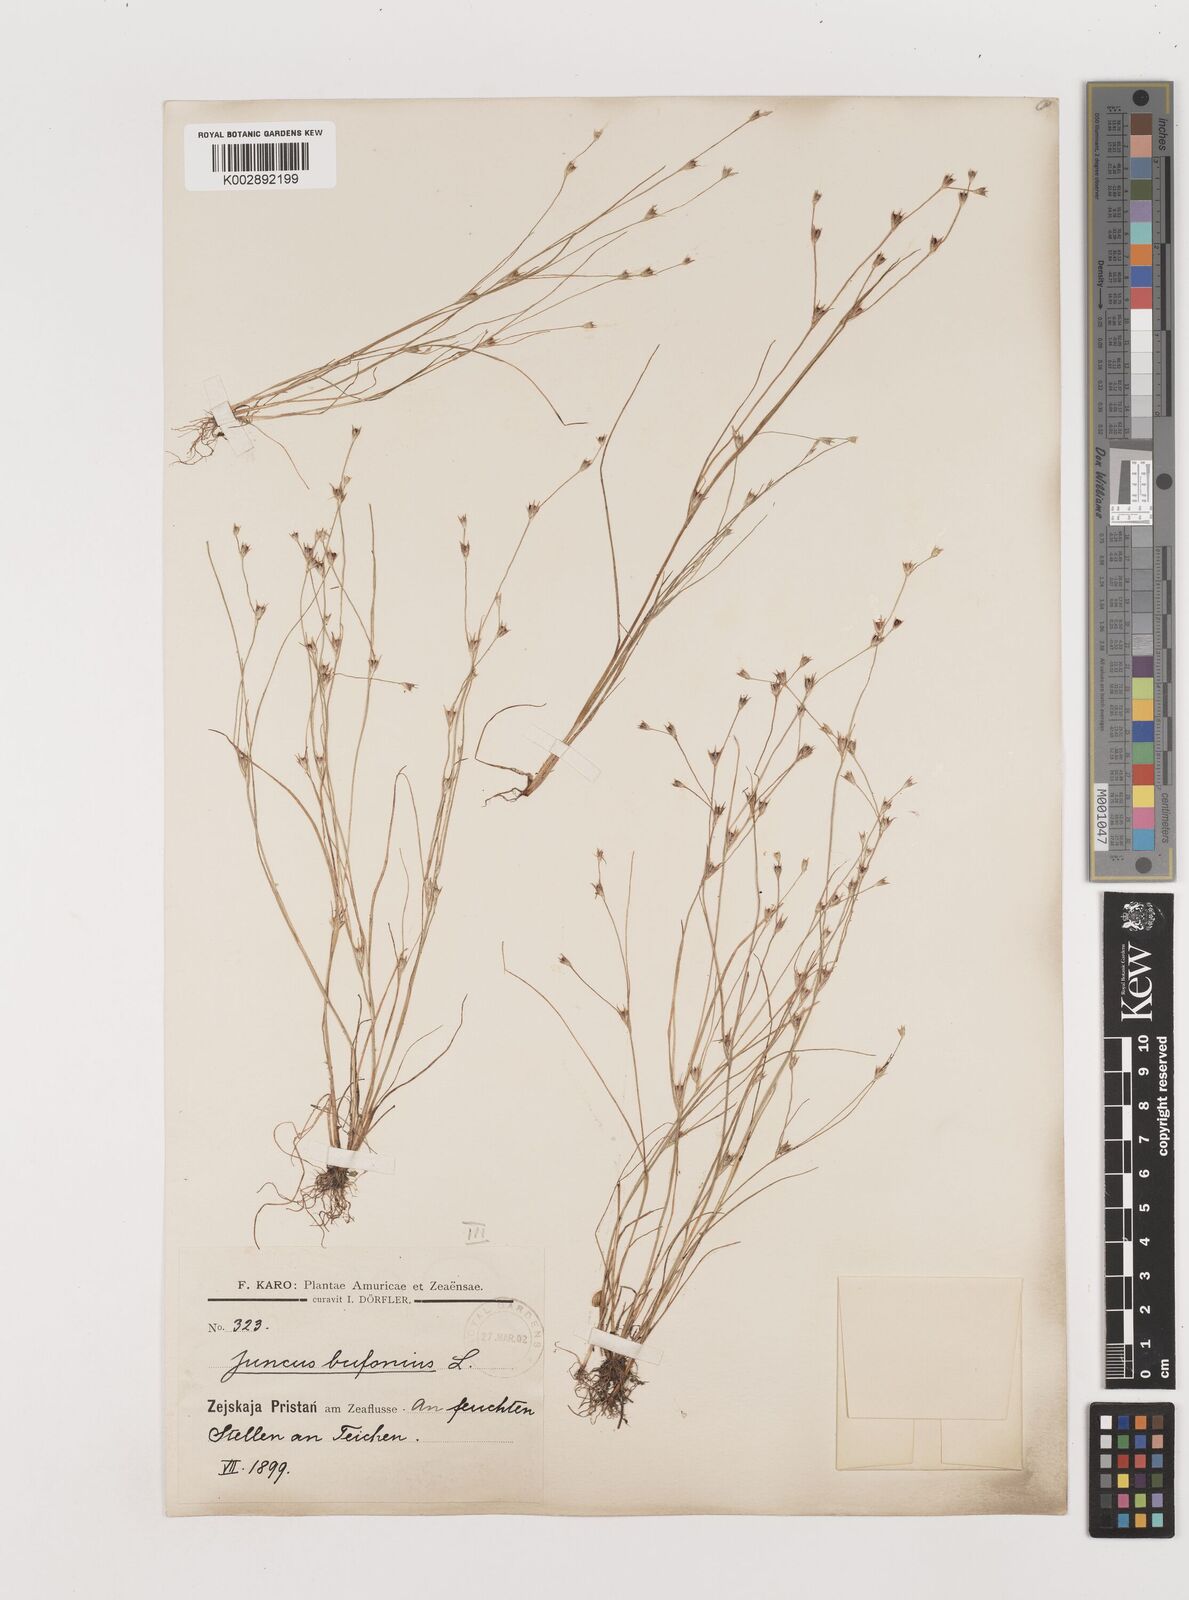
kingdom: Plantae
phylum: Tracheophyta
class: Liliopsida
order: Poales
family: Juncaceae
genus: Juncus
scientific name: Juncus bufonius
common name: Toad rush
